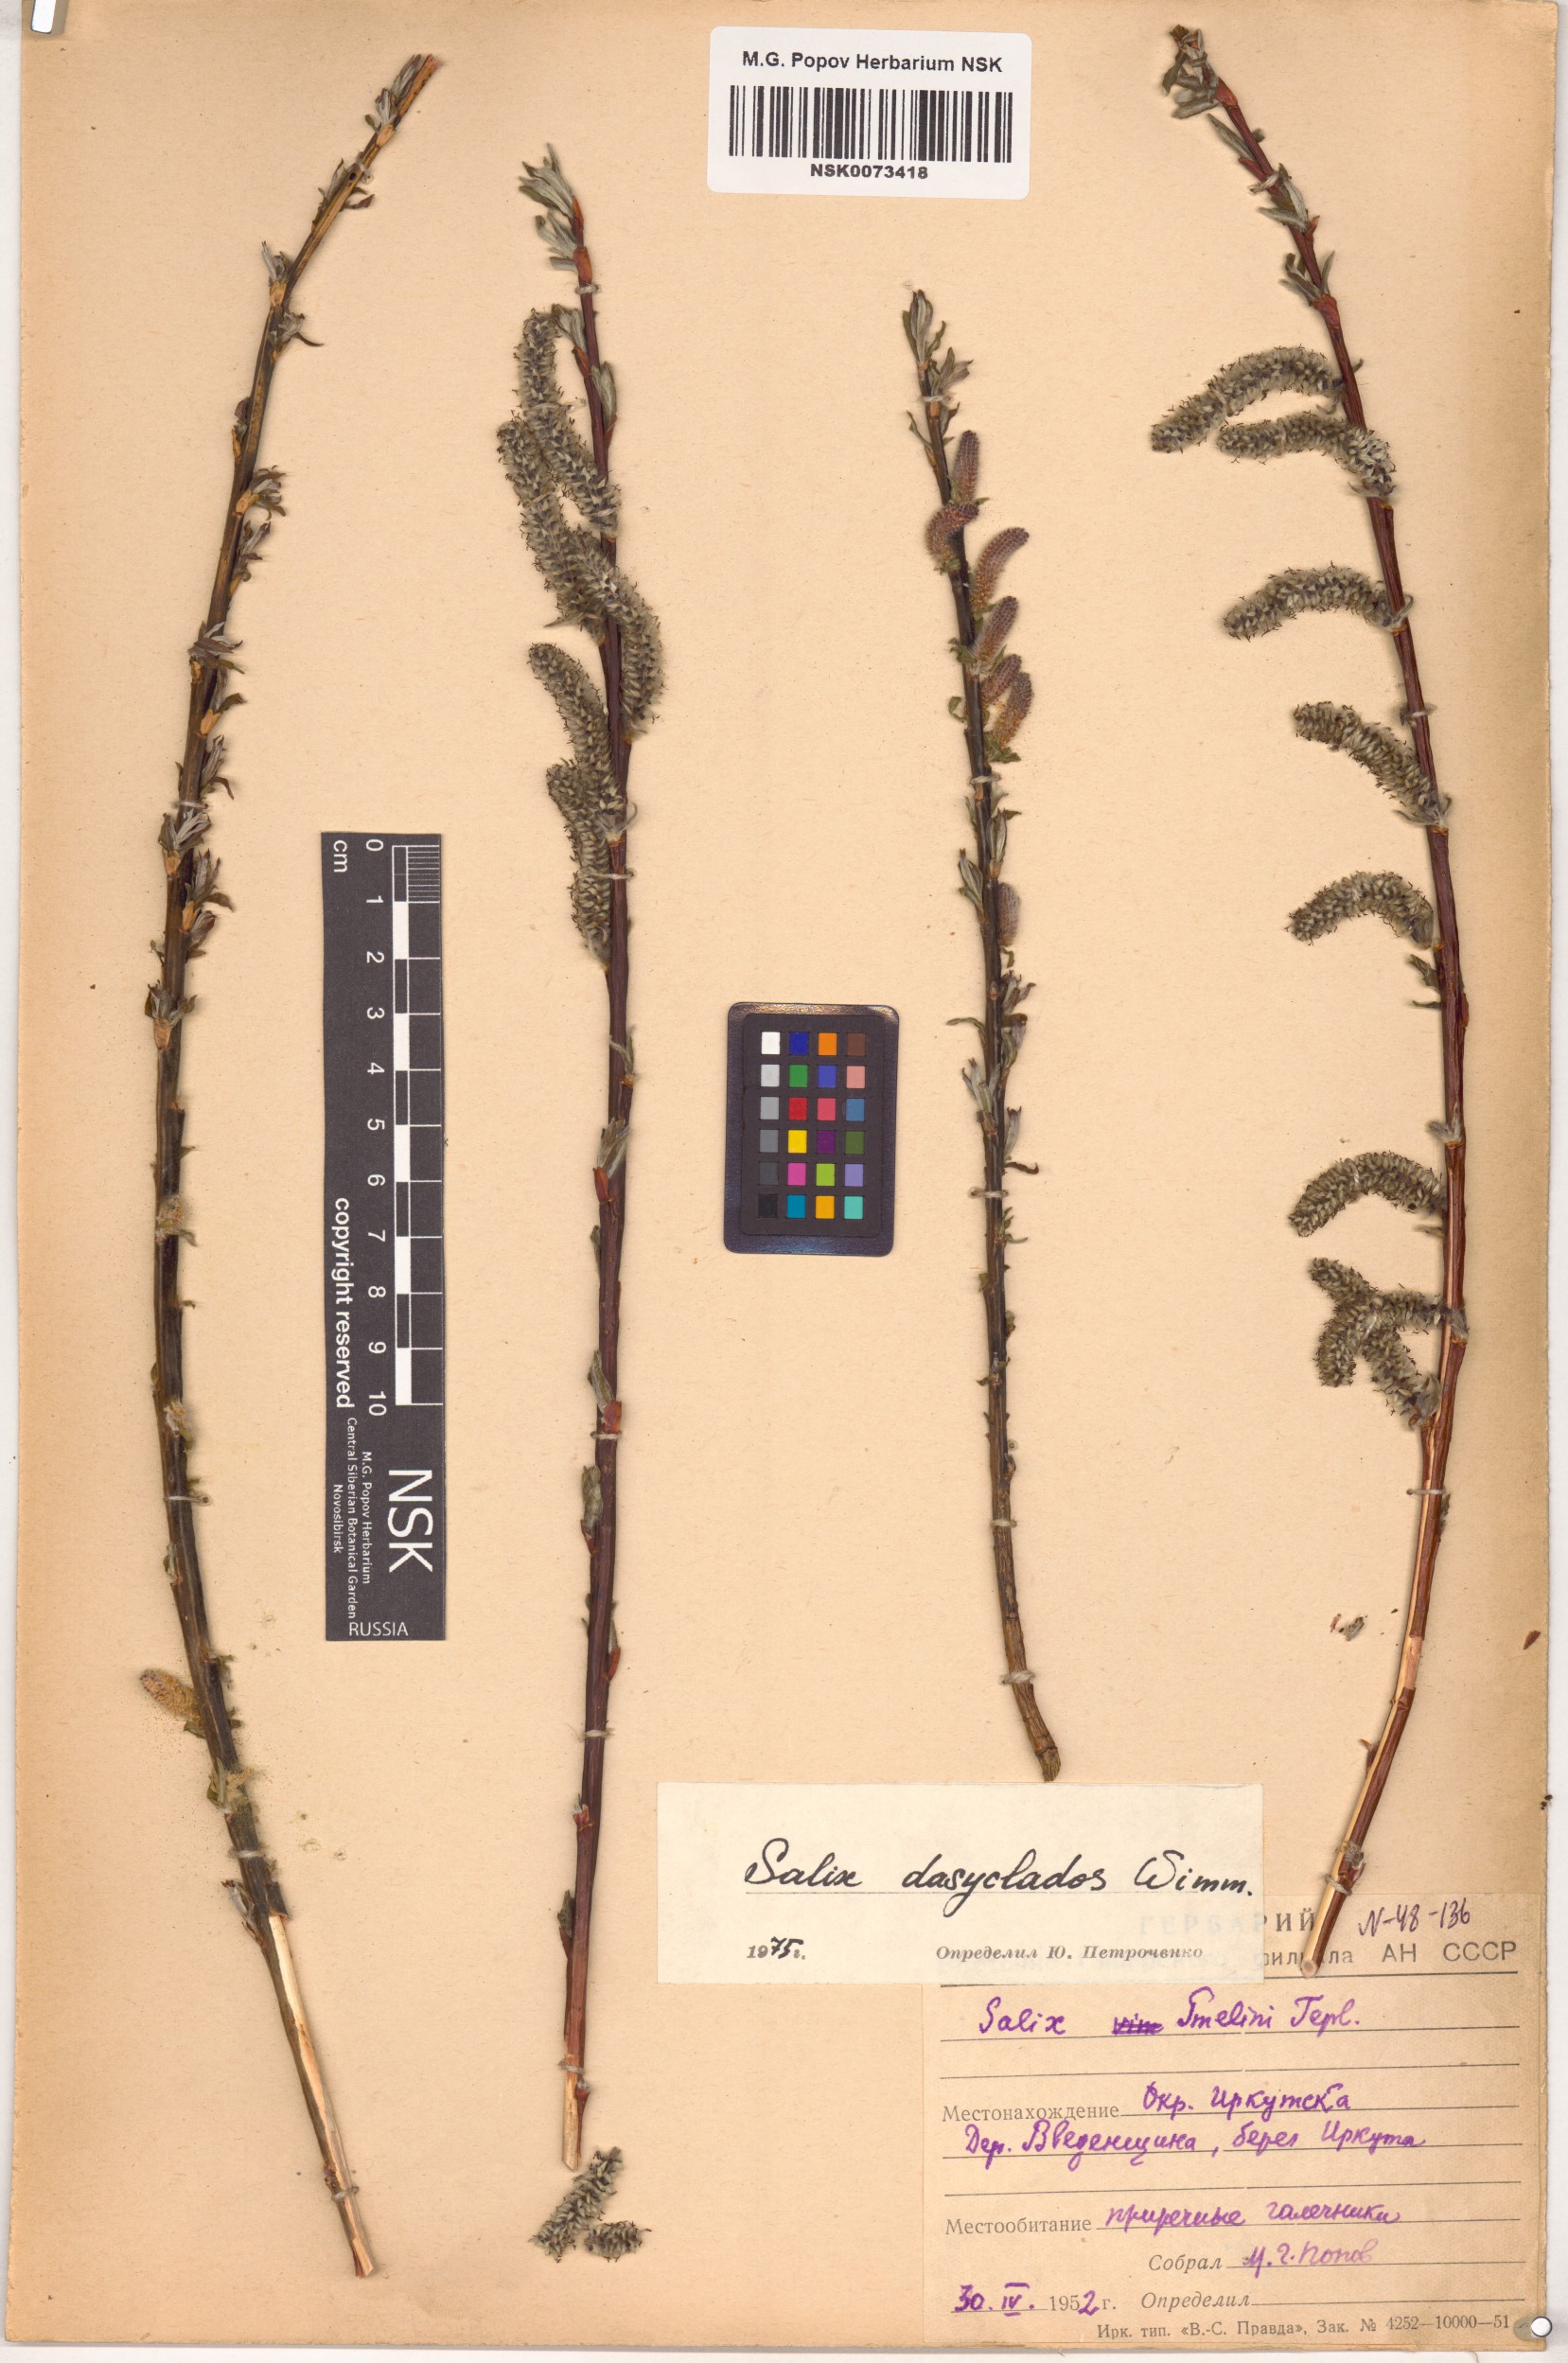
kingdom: Plantae
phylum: Tracheophyta
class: Magnoliopsida
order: Malpighiales
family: Salicaceae
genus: Salix
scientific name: Salix gmelinii
